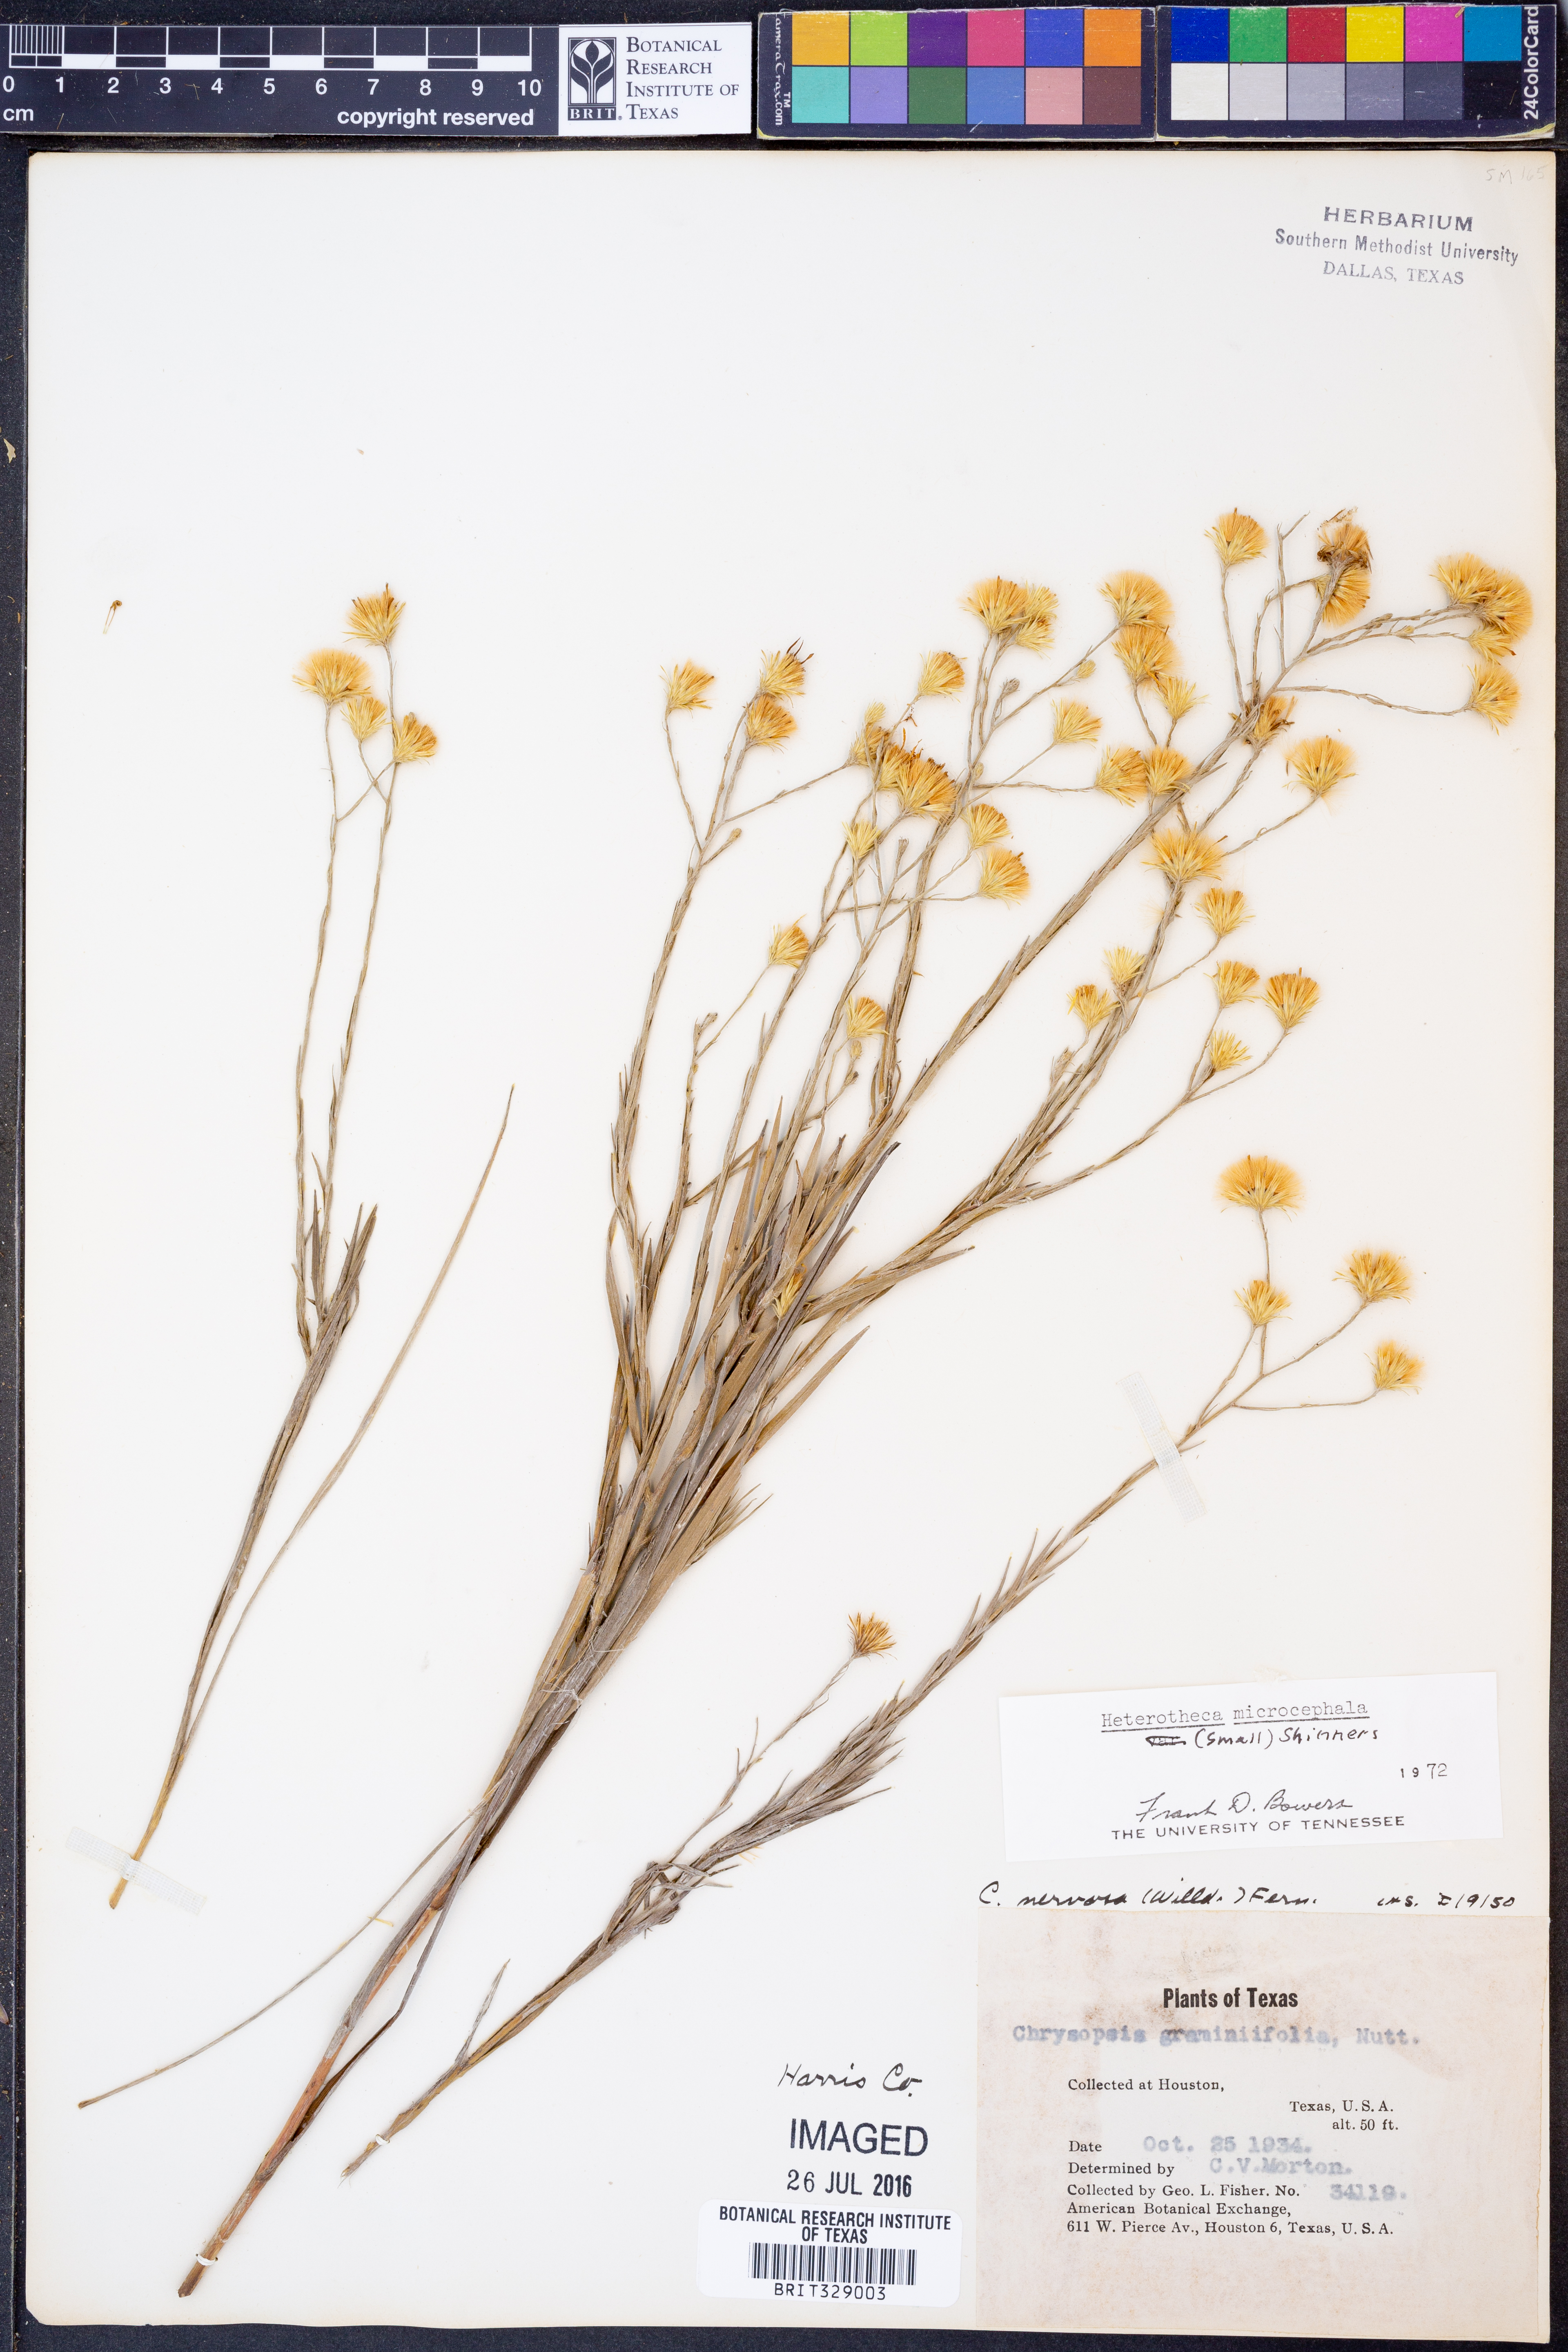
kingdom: Plantae
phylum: Tracheophyta
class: Magnoliopsida
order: Asterales
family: Asteraceae
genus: Pityopsis
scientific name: Pityopsis microcephala
